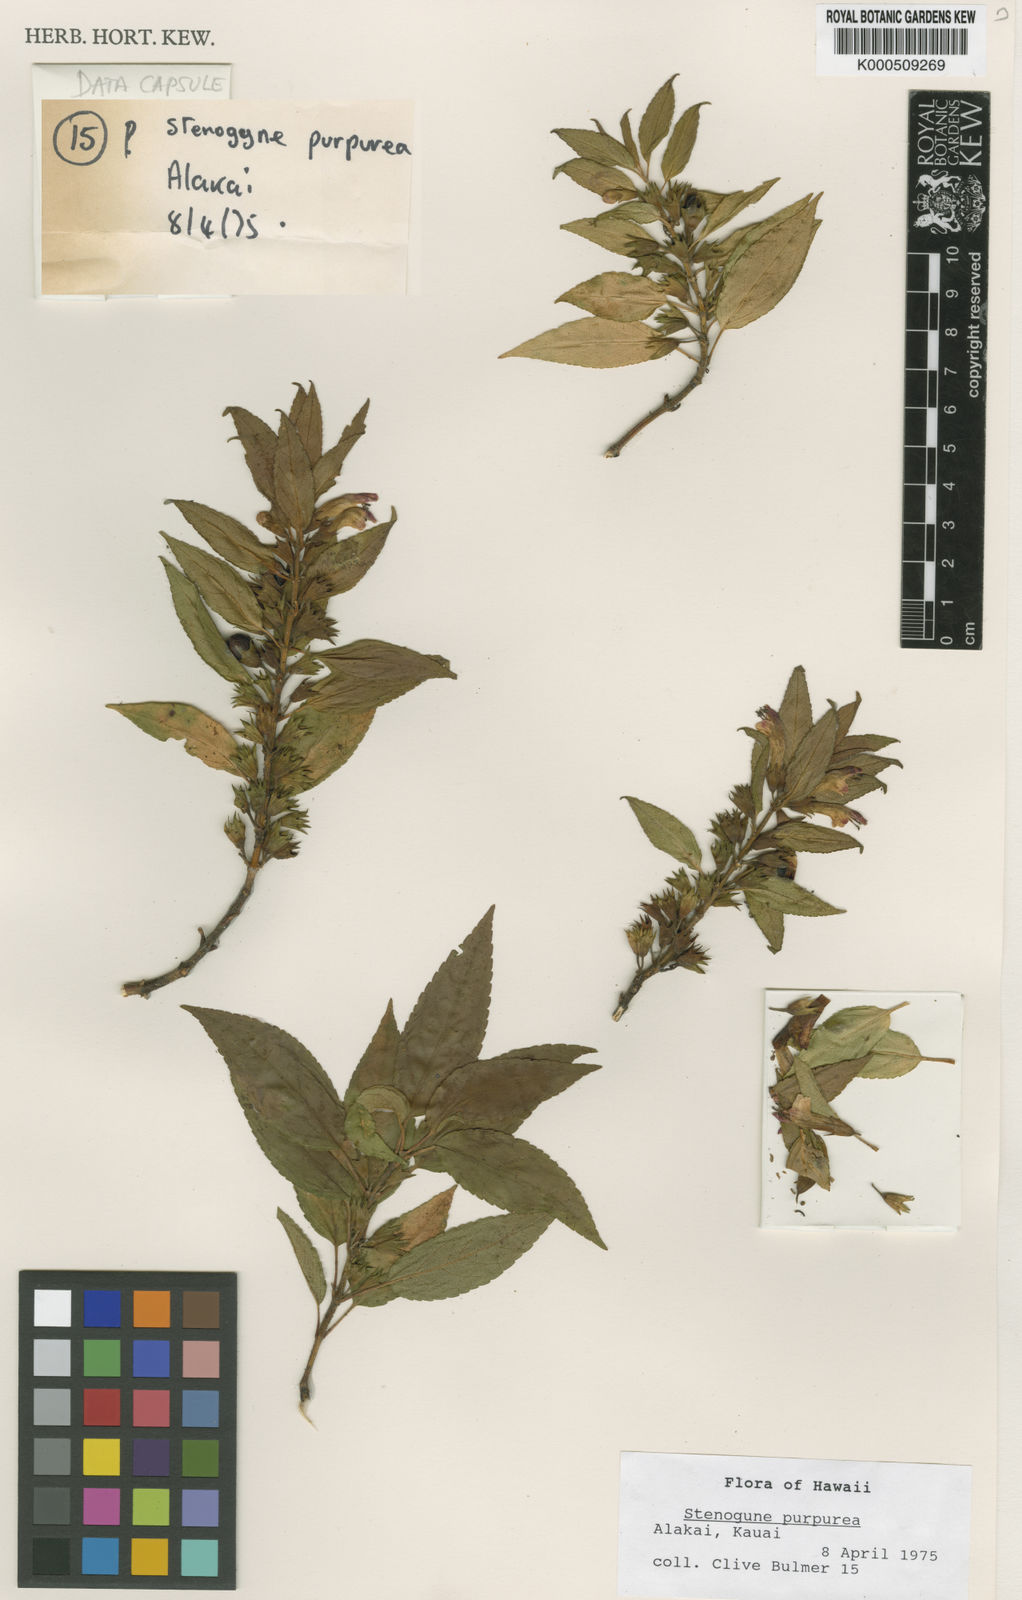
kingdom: Plantae
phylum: Tracheophyta
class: Magnoliopsida
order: Lamiales
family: Lamiaceae
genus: Stenogyne
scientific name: Stenogyne purpurea
